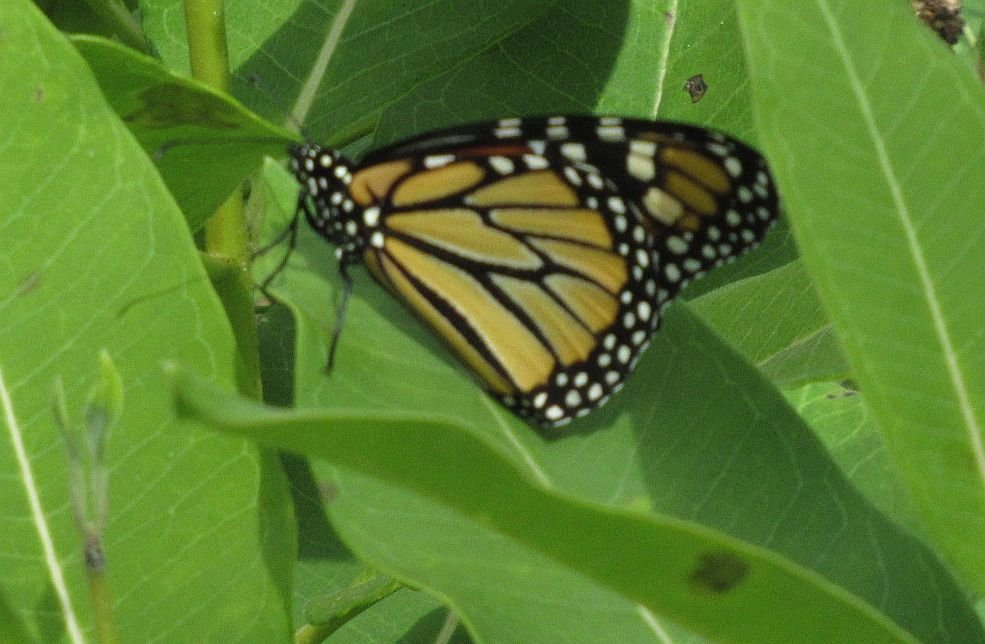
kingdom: Animalia
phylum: Arthropoda
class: Insecta
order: Lepidoptera
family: Nymphalidae
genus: Danaus
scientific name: Danaus plexippus
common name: Monarch
